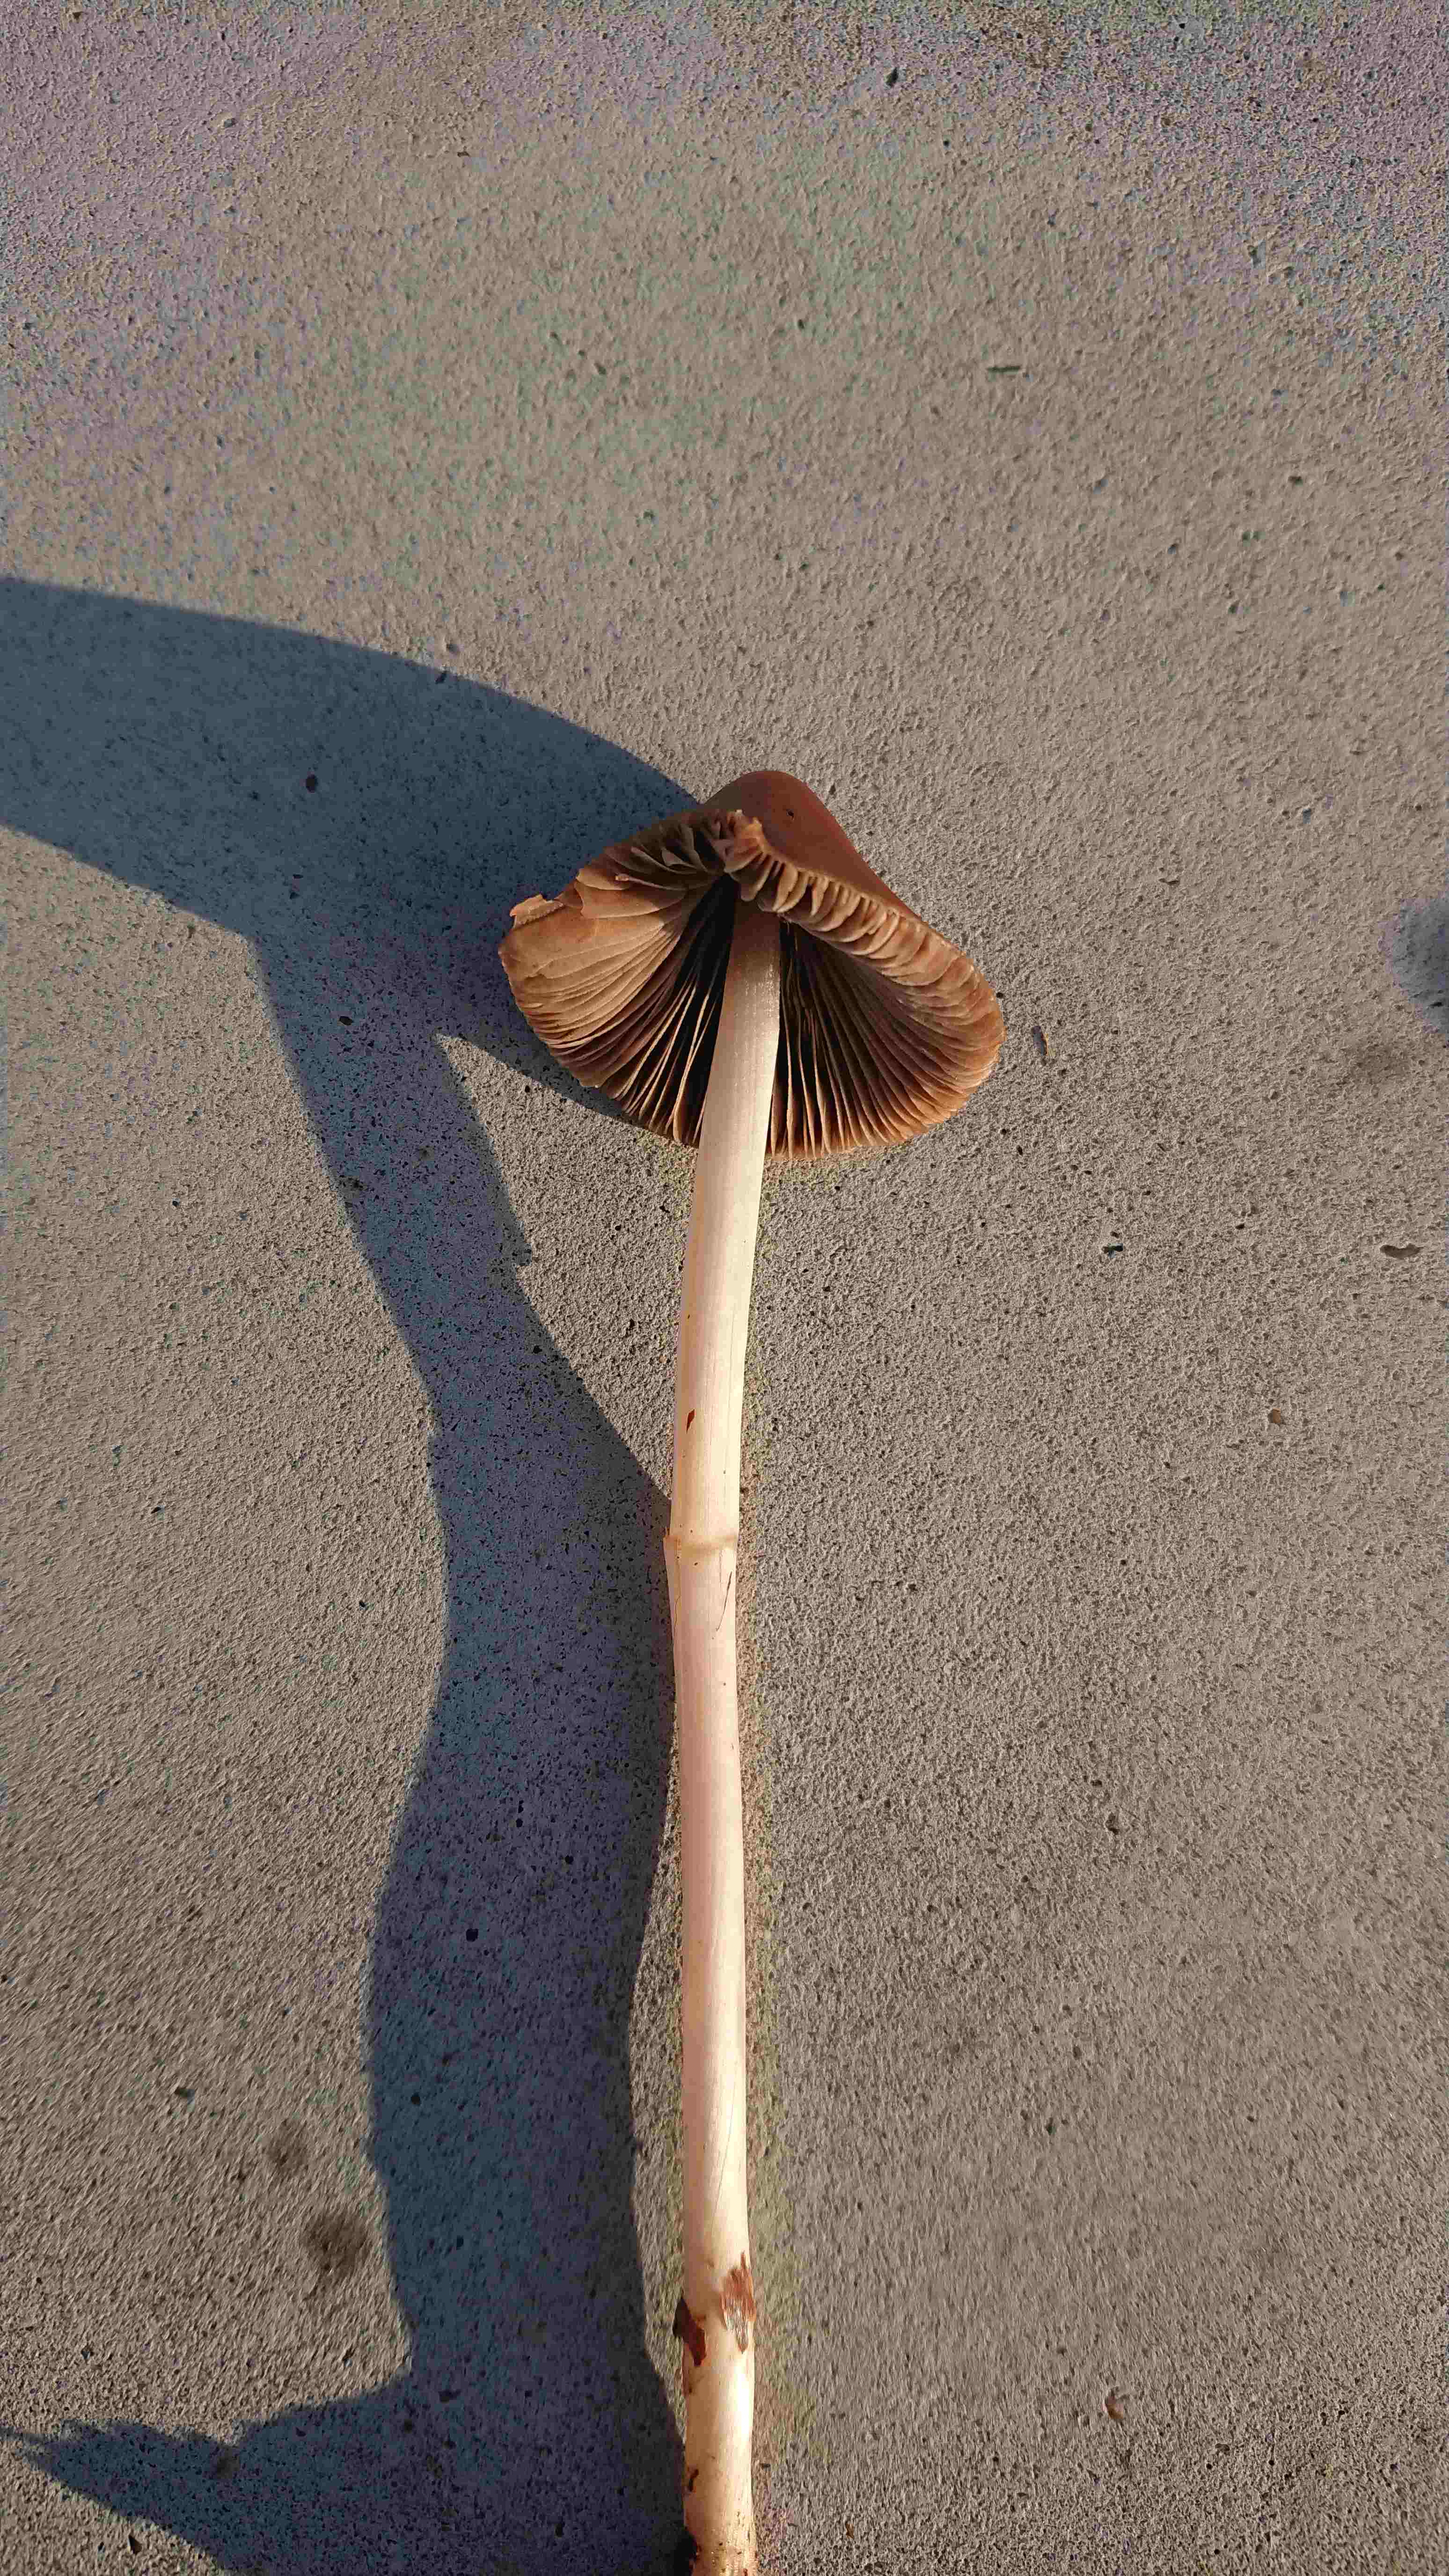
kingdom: Fungi
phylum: Basidiomycota
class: Agaricomycetes
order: Agaricales
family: Psathyrellaceae
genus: Parasola
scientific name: Parasola conopilea
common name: kegle-hjulhat
